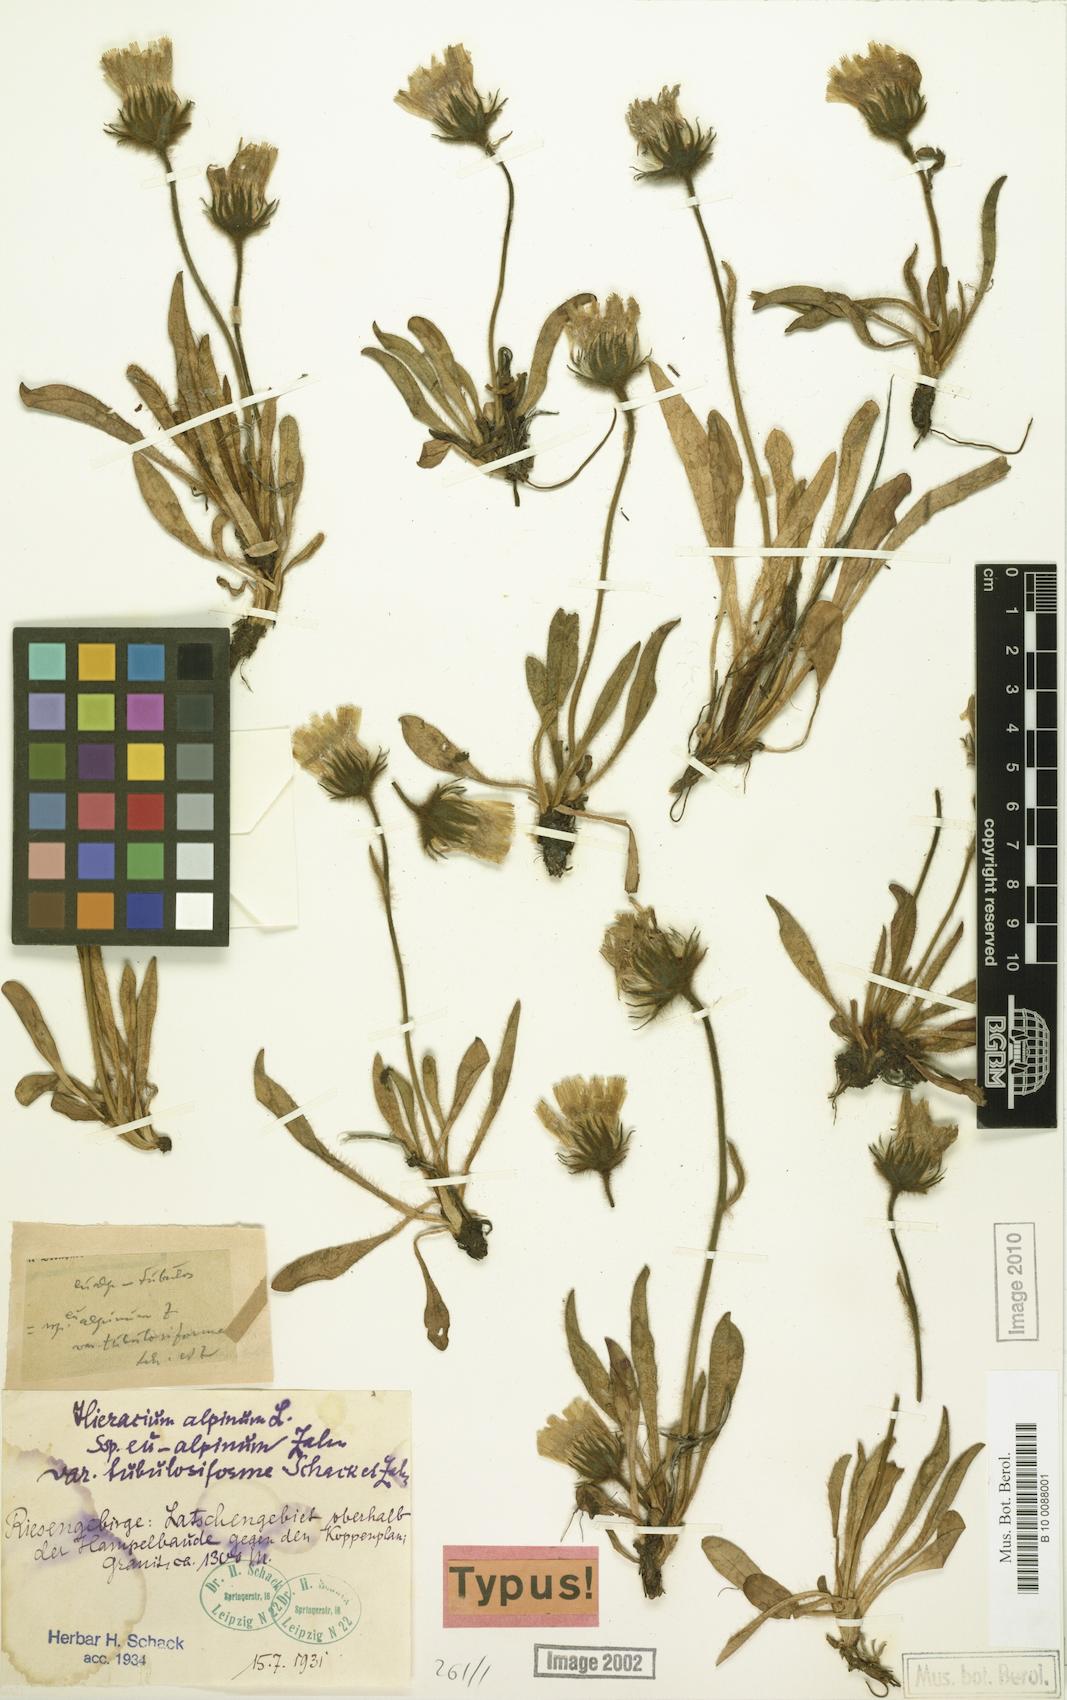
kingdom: Plantae
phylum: Tracheophyta
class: Magnoliopsida
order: Asterales
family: Asteraceae
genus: Hieracium
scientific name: Hieracium alpinum
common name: Alpine hawkweed
